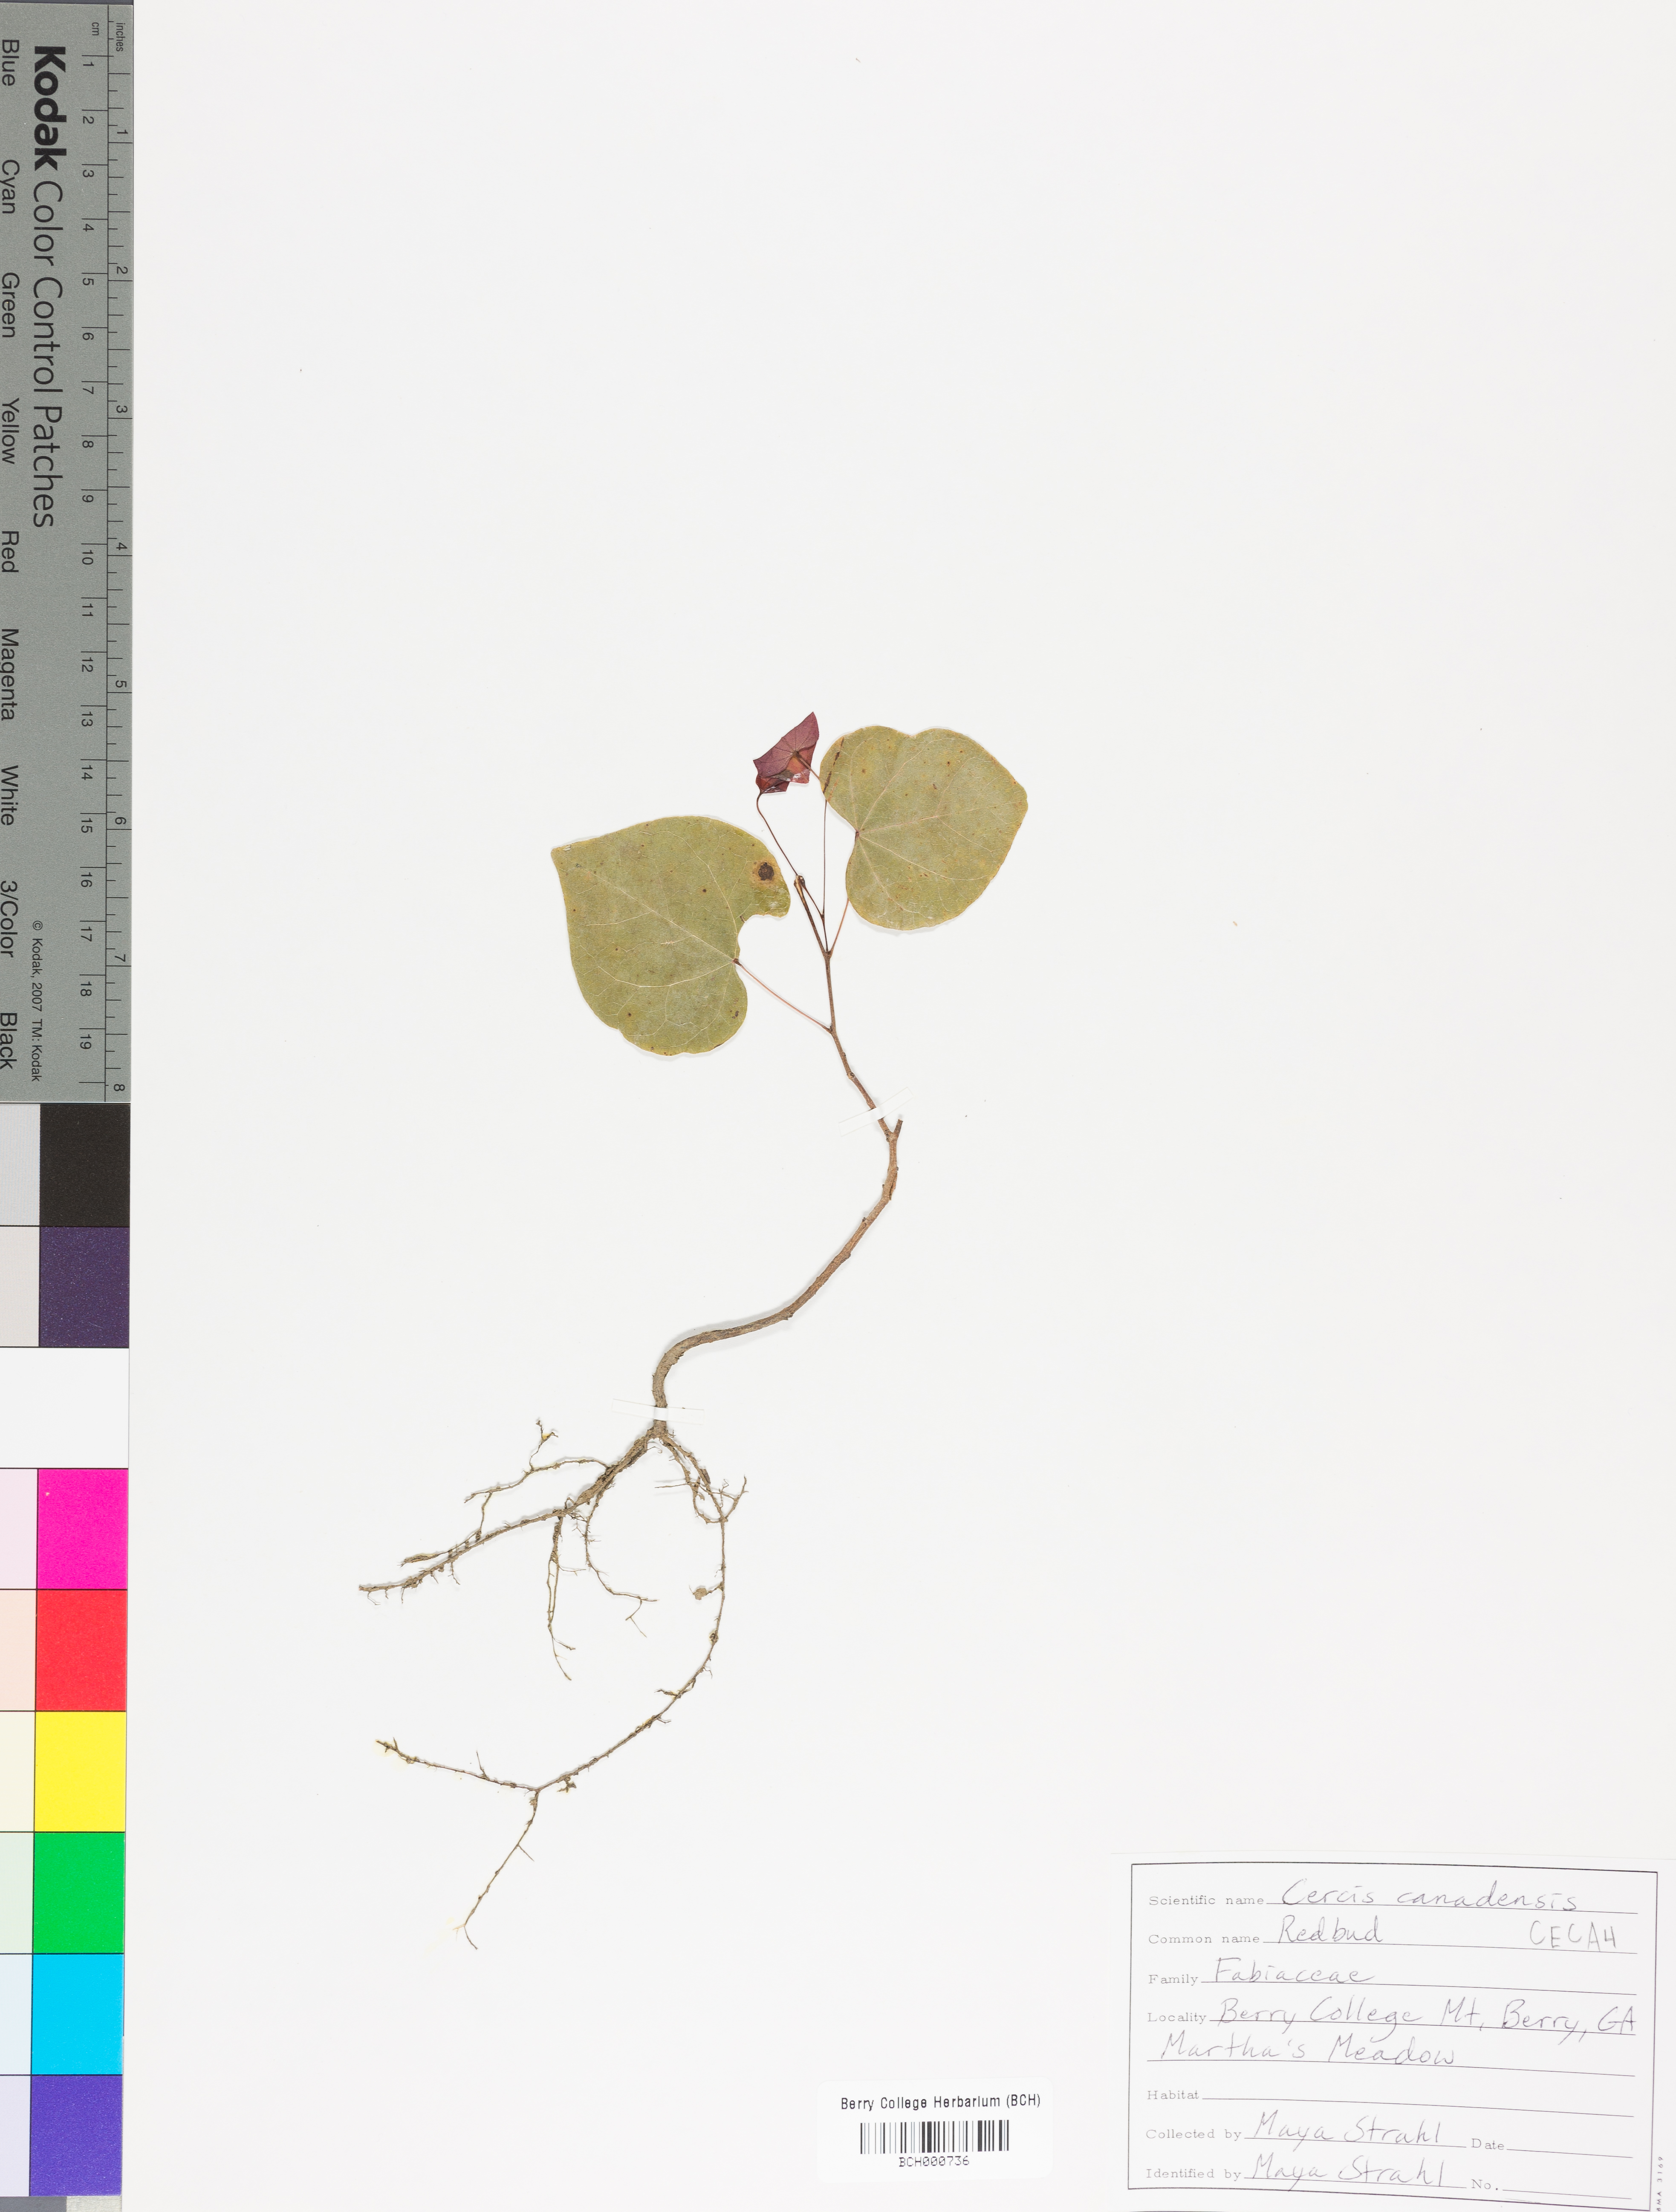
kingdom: Plantae
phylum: Tracheophyta
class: Magnoliopsida
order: Fabales
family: Fabaceae
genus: Cercis
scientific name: Cercis canadensis
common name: Eastern redbud
